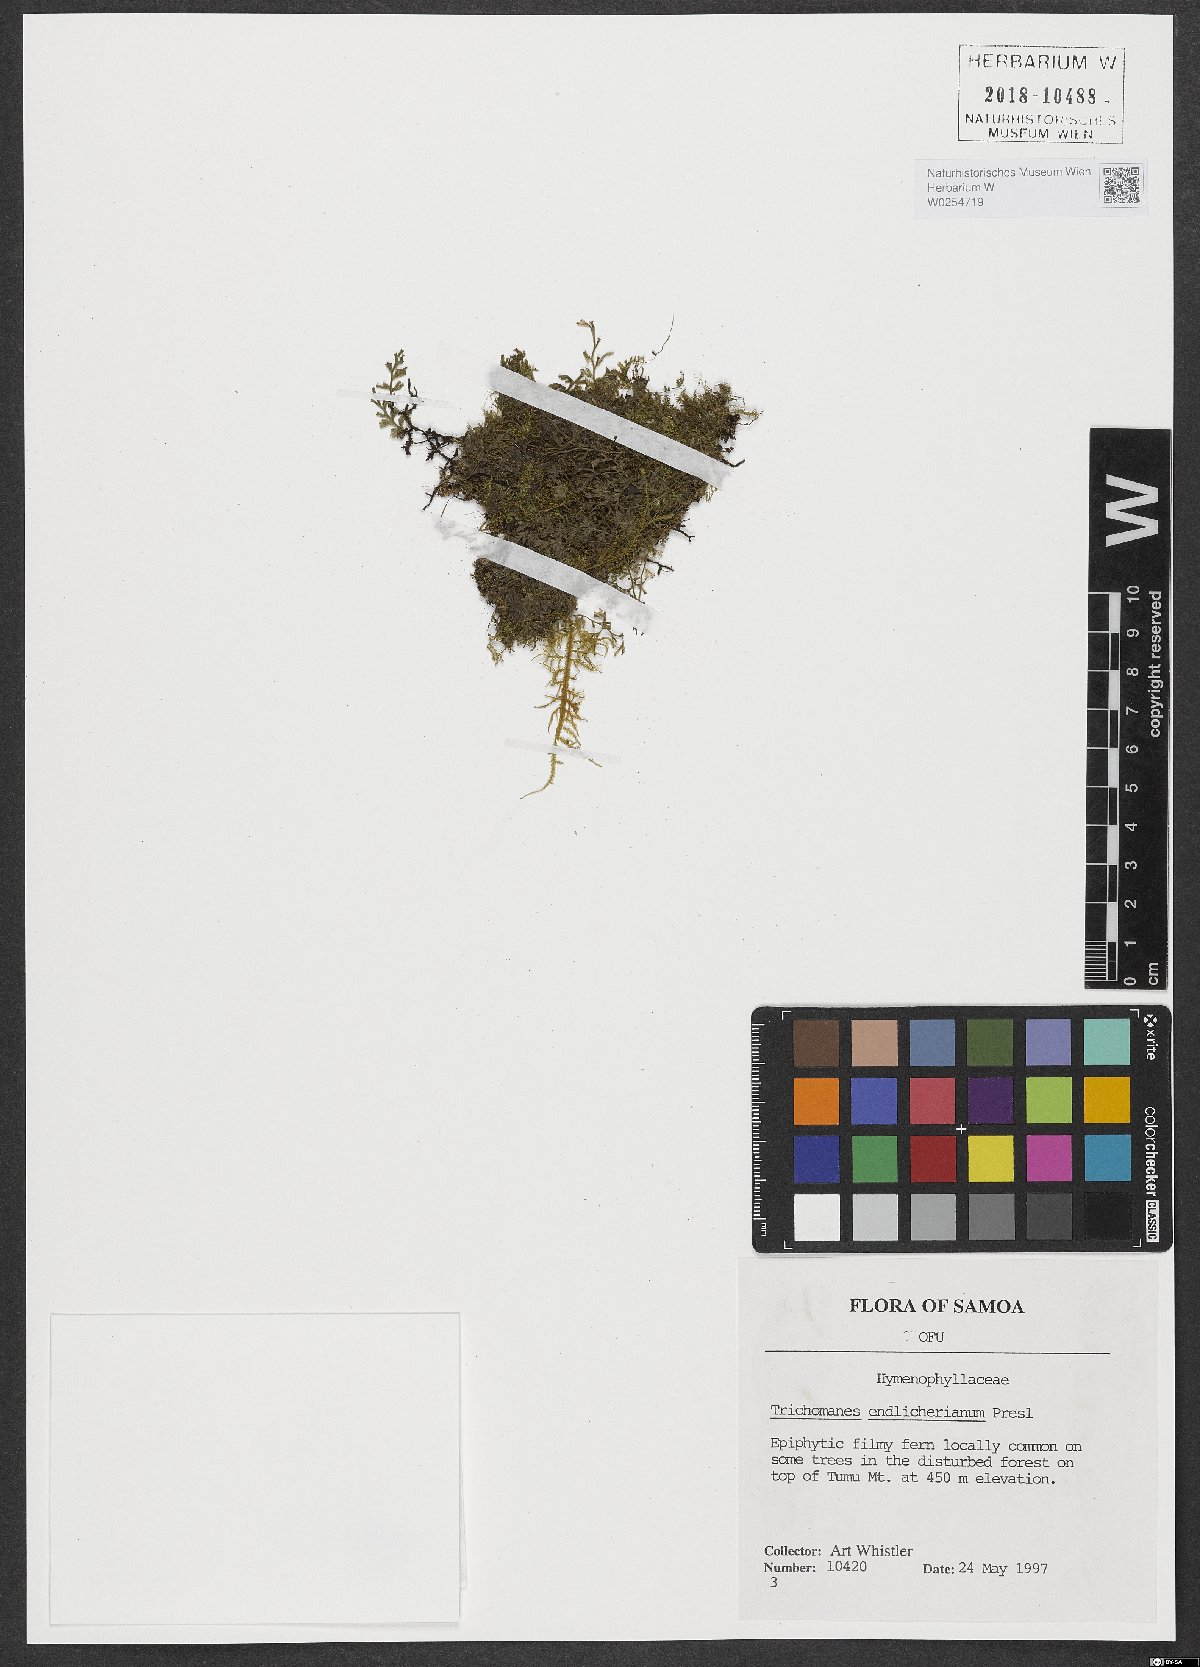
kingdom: Plantae
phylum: Tracheophyta
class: Polypodiopsida
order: Hymenophyllales
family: Hymenophyllaceae
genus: Polyphlebium
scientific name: Polyphlebium endlicherianum
